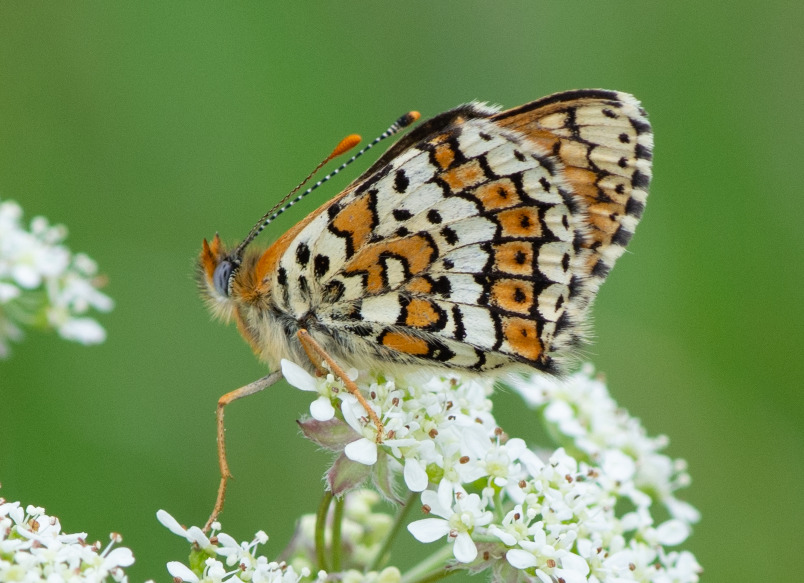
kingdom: Animalia
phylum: Arthropoda
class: Insecta
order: Lepidoptera
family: Nymphalidae
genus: Melitaea
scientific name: Melitaea cinxia
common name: Okkergul pletvinge
